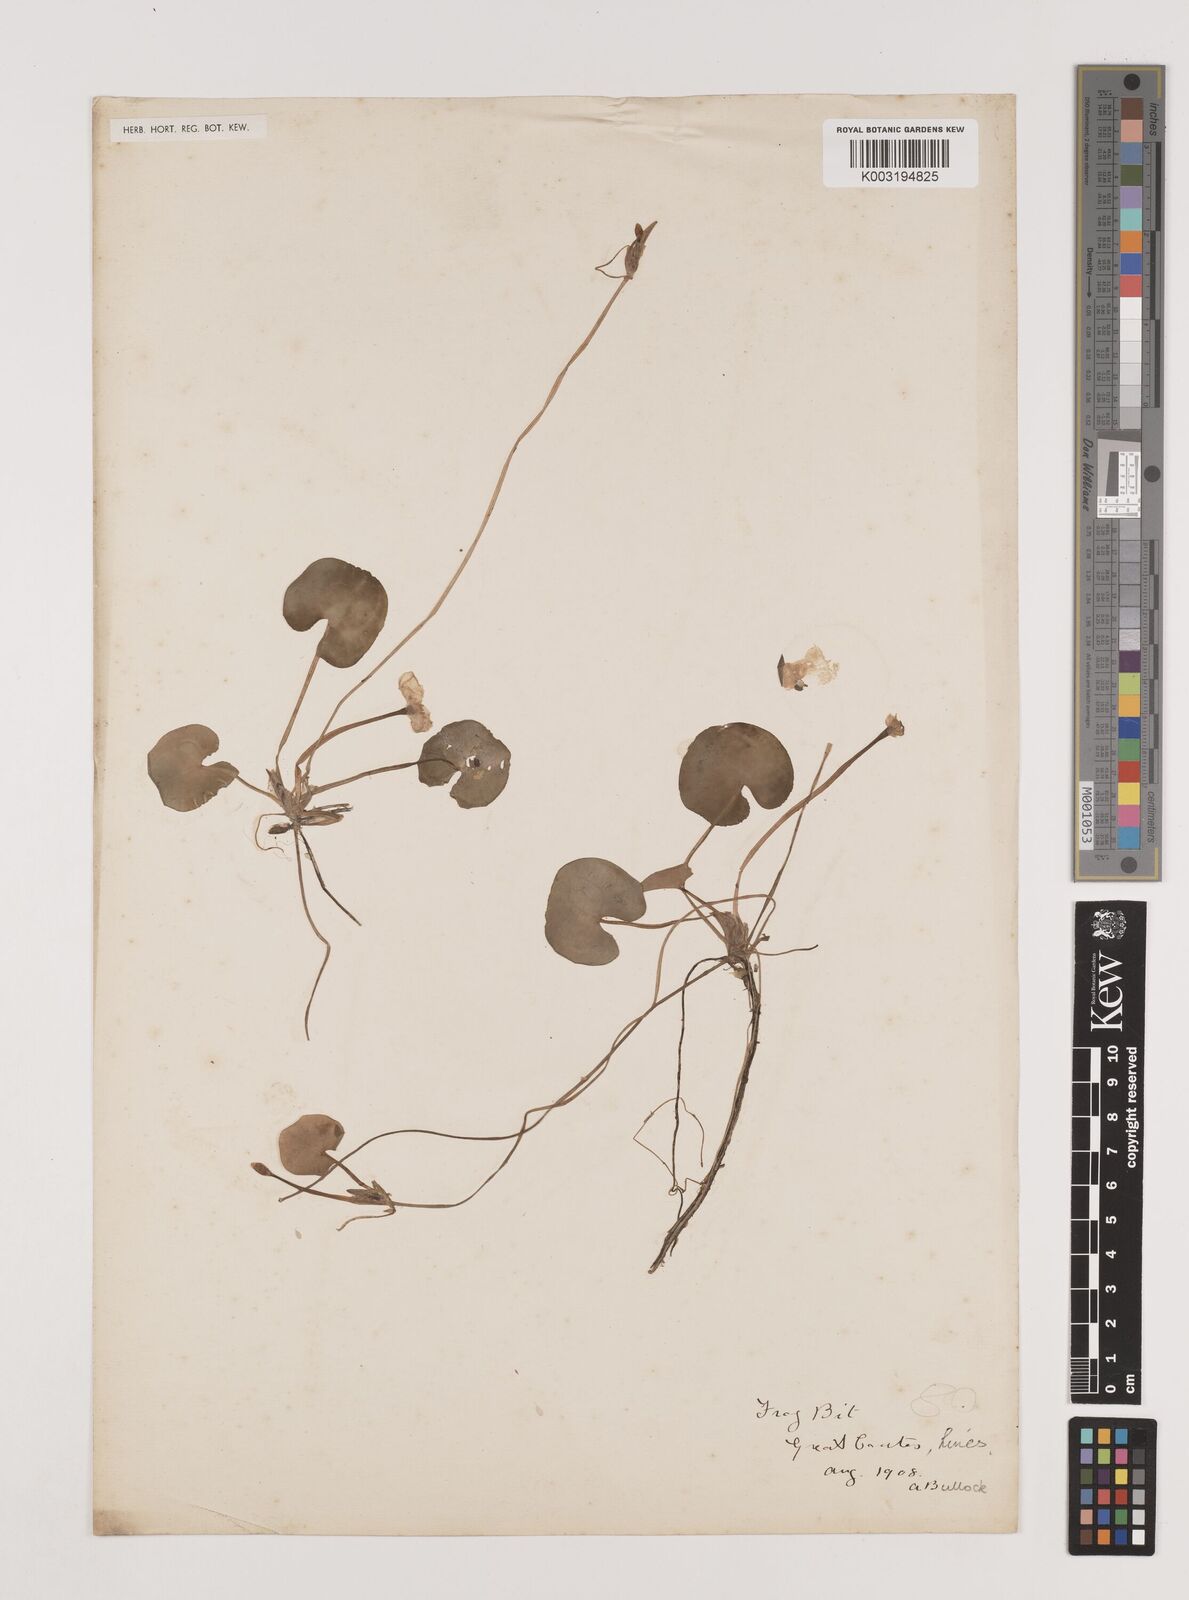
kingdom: Plantae
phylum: Tracheophyta
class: Liliopsida
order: Alismatales
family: Hydrocharitaceae
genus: Hydrocharis
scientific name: Hydrocharis morsus-ranae
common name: Frogbit
